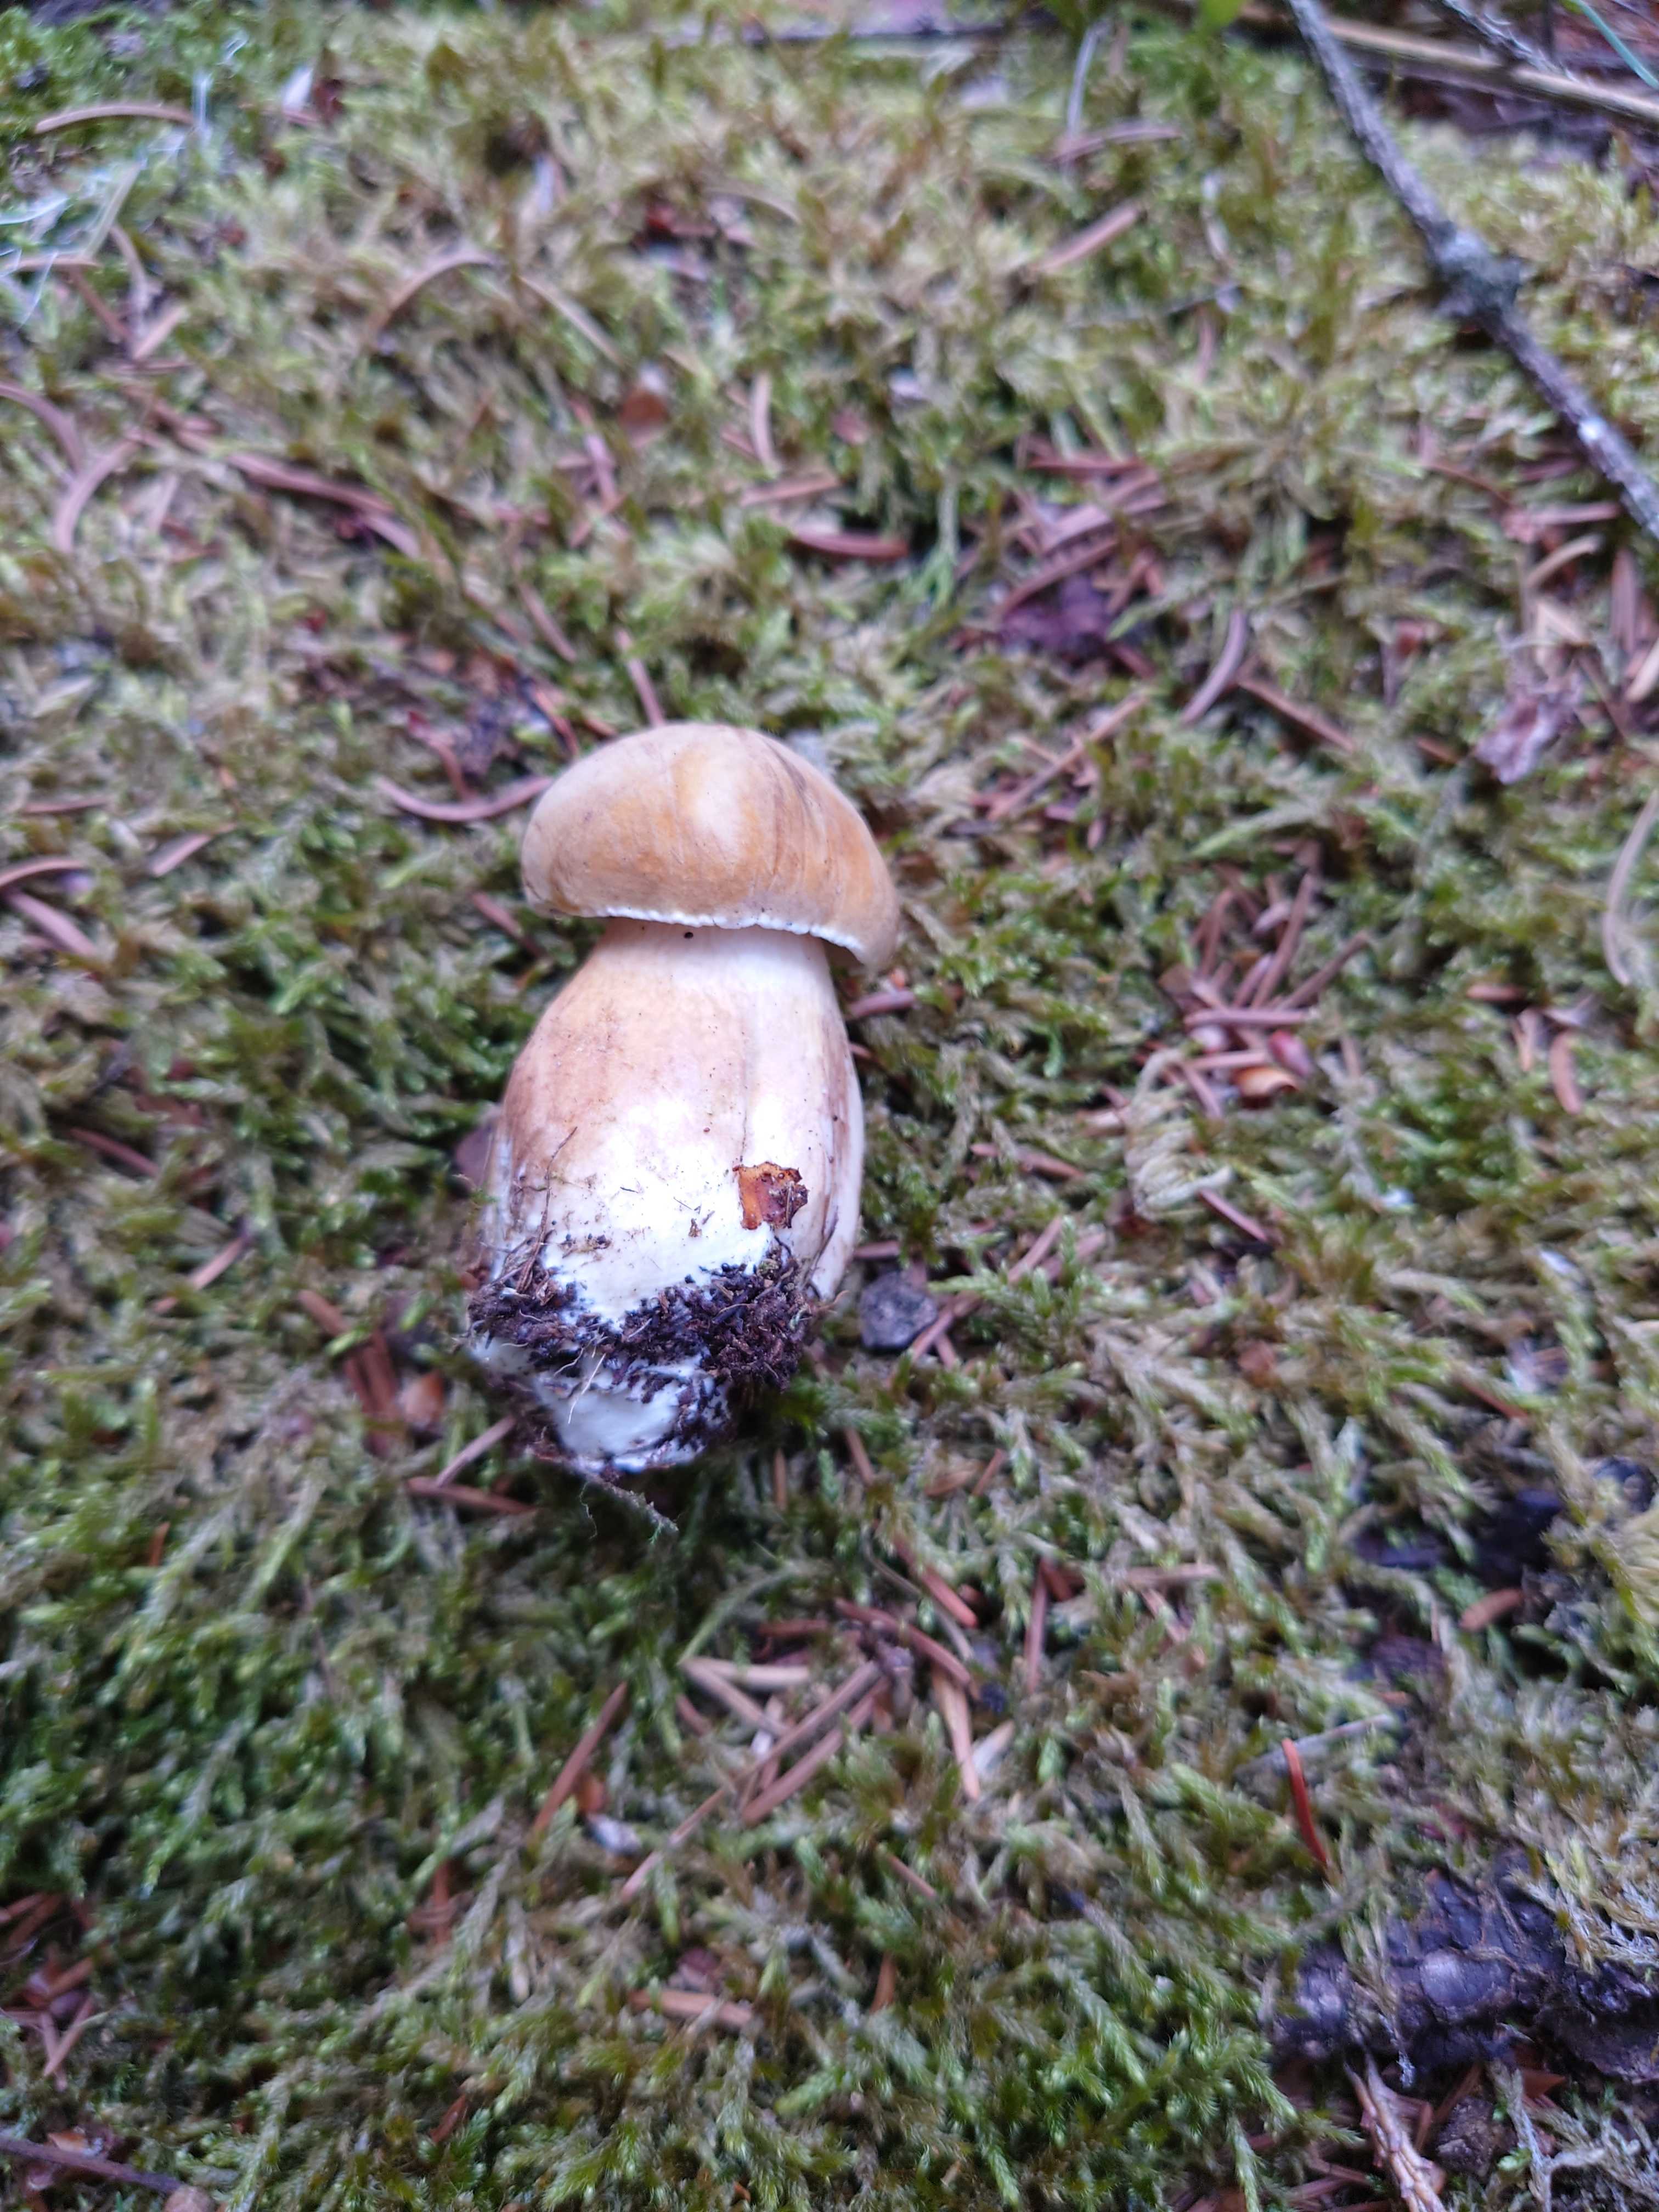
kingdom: Fungi
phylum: Basidiomycota
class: Agaricomycetes
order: Boletales
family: Boletaceae
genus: Tylopilus
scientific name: Tylopilus felleus
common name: galderørhat
